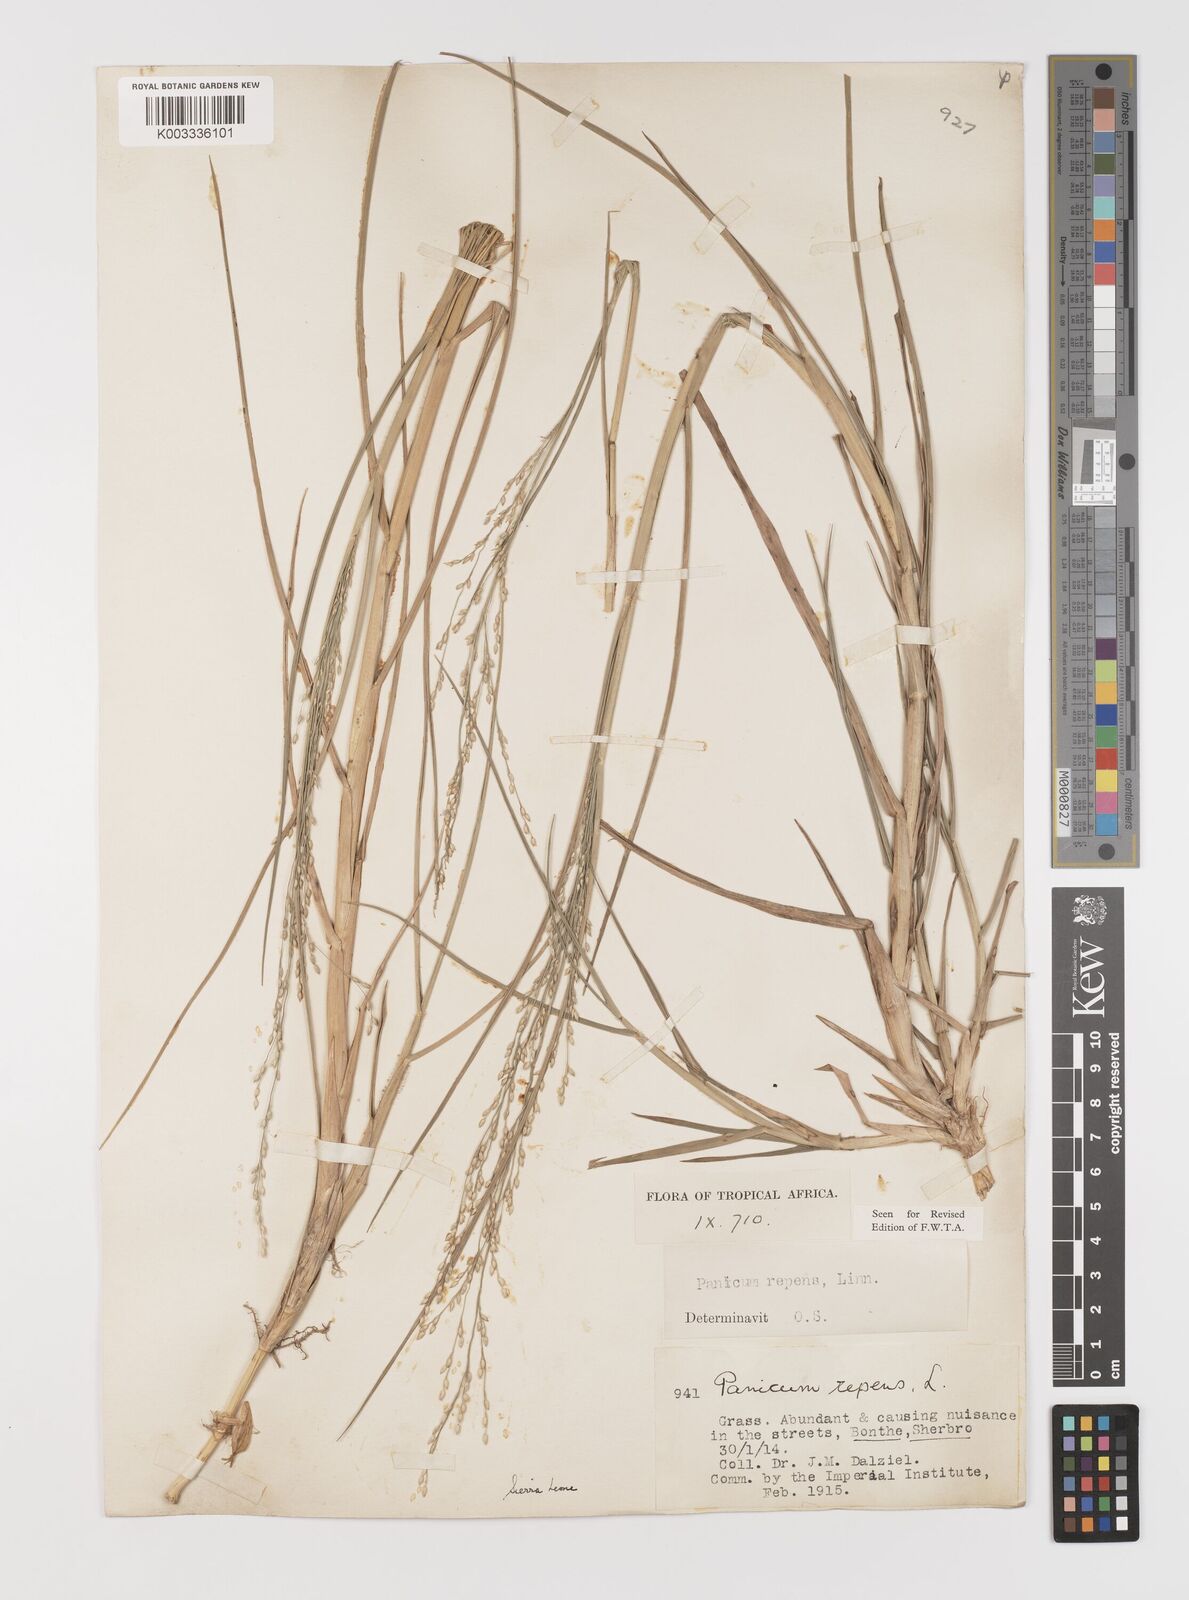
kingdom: Plantae
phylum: Tracheophyta
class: Liliopsida
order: Poales
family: Poaceae
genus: Panicum
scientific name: Panicum repens
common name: Torpedo grass
